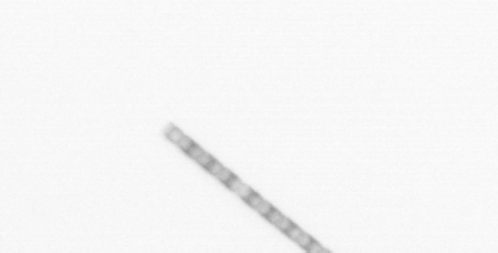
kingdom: Chromista
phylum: Ochrophyta
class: Bacillariophyceae
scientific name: Bacillariophyceae
